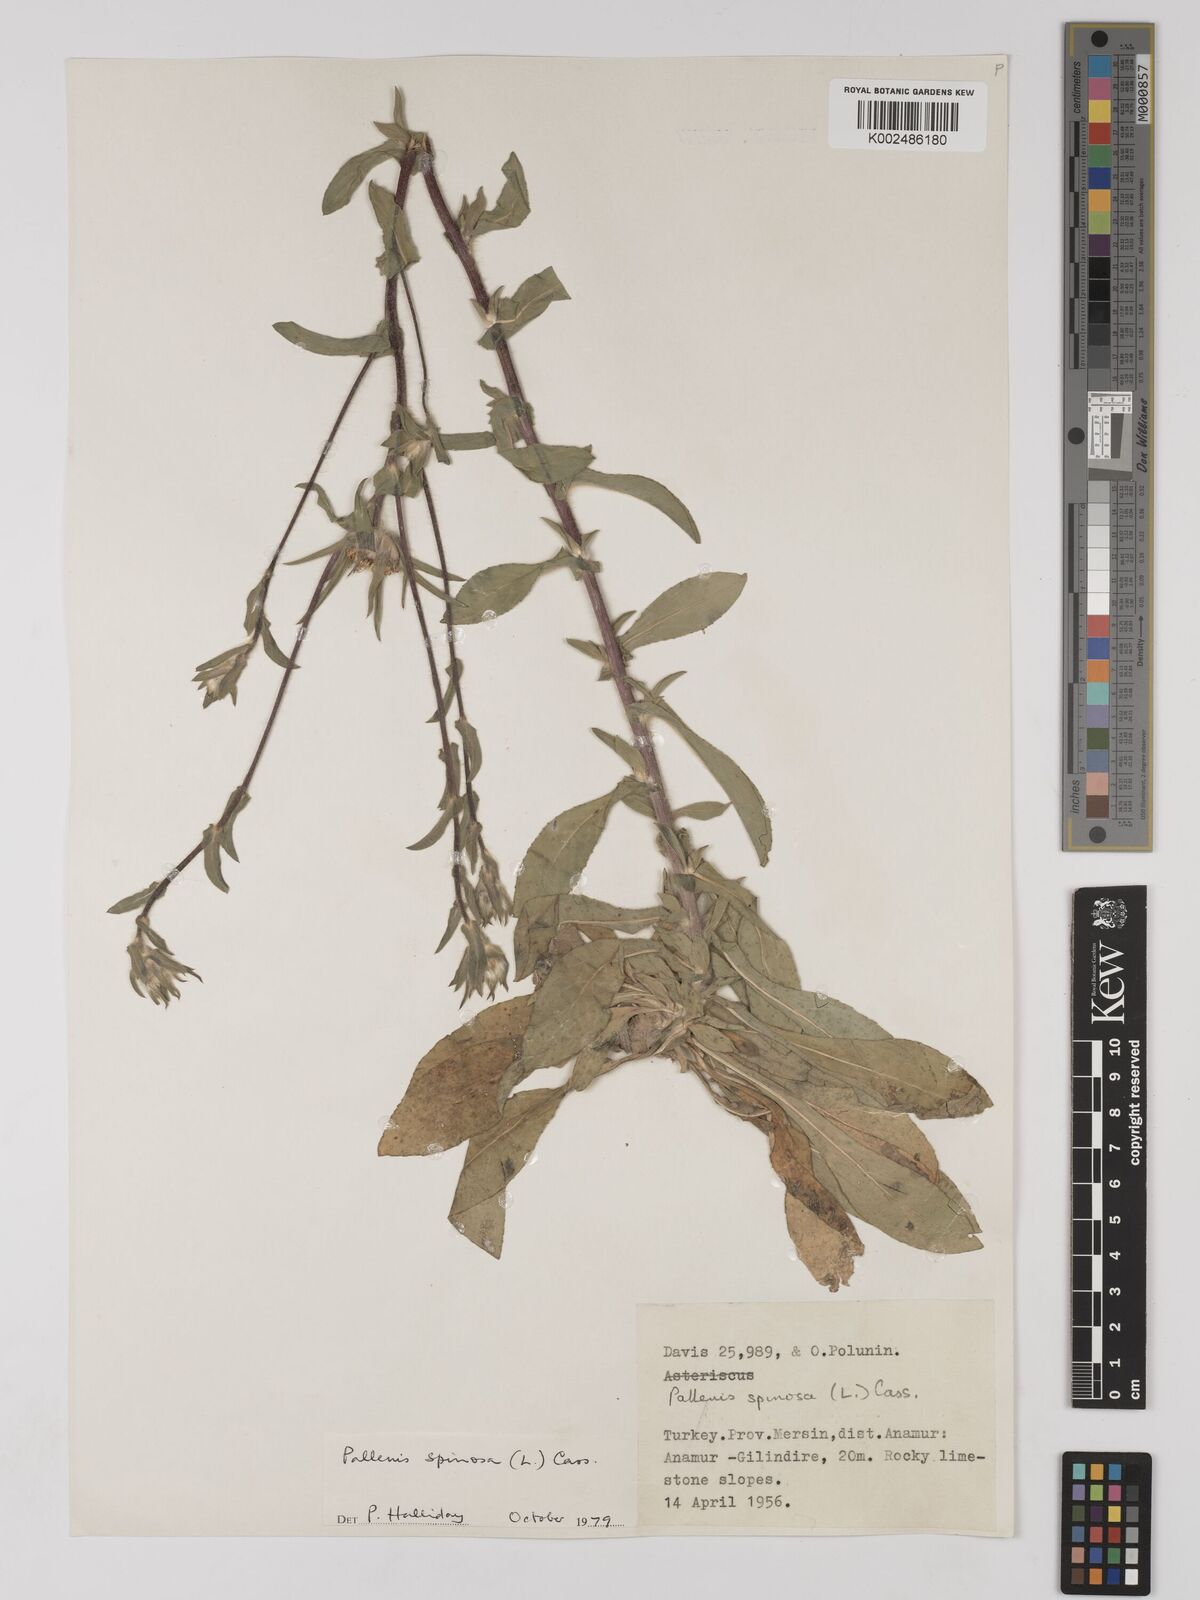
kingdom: Plantae
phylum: Tracheophyta
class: Magnoliopsida
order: Asterales
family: Asteraceae
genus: Pallenis
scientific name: Pallenis spinosa
